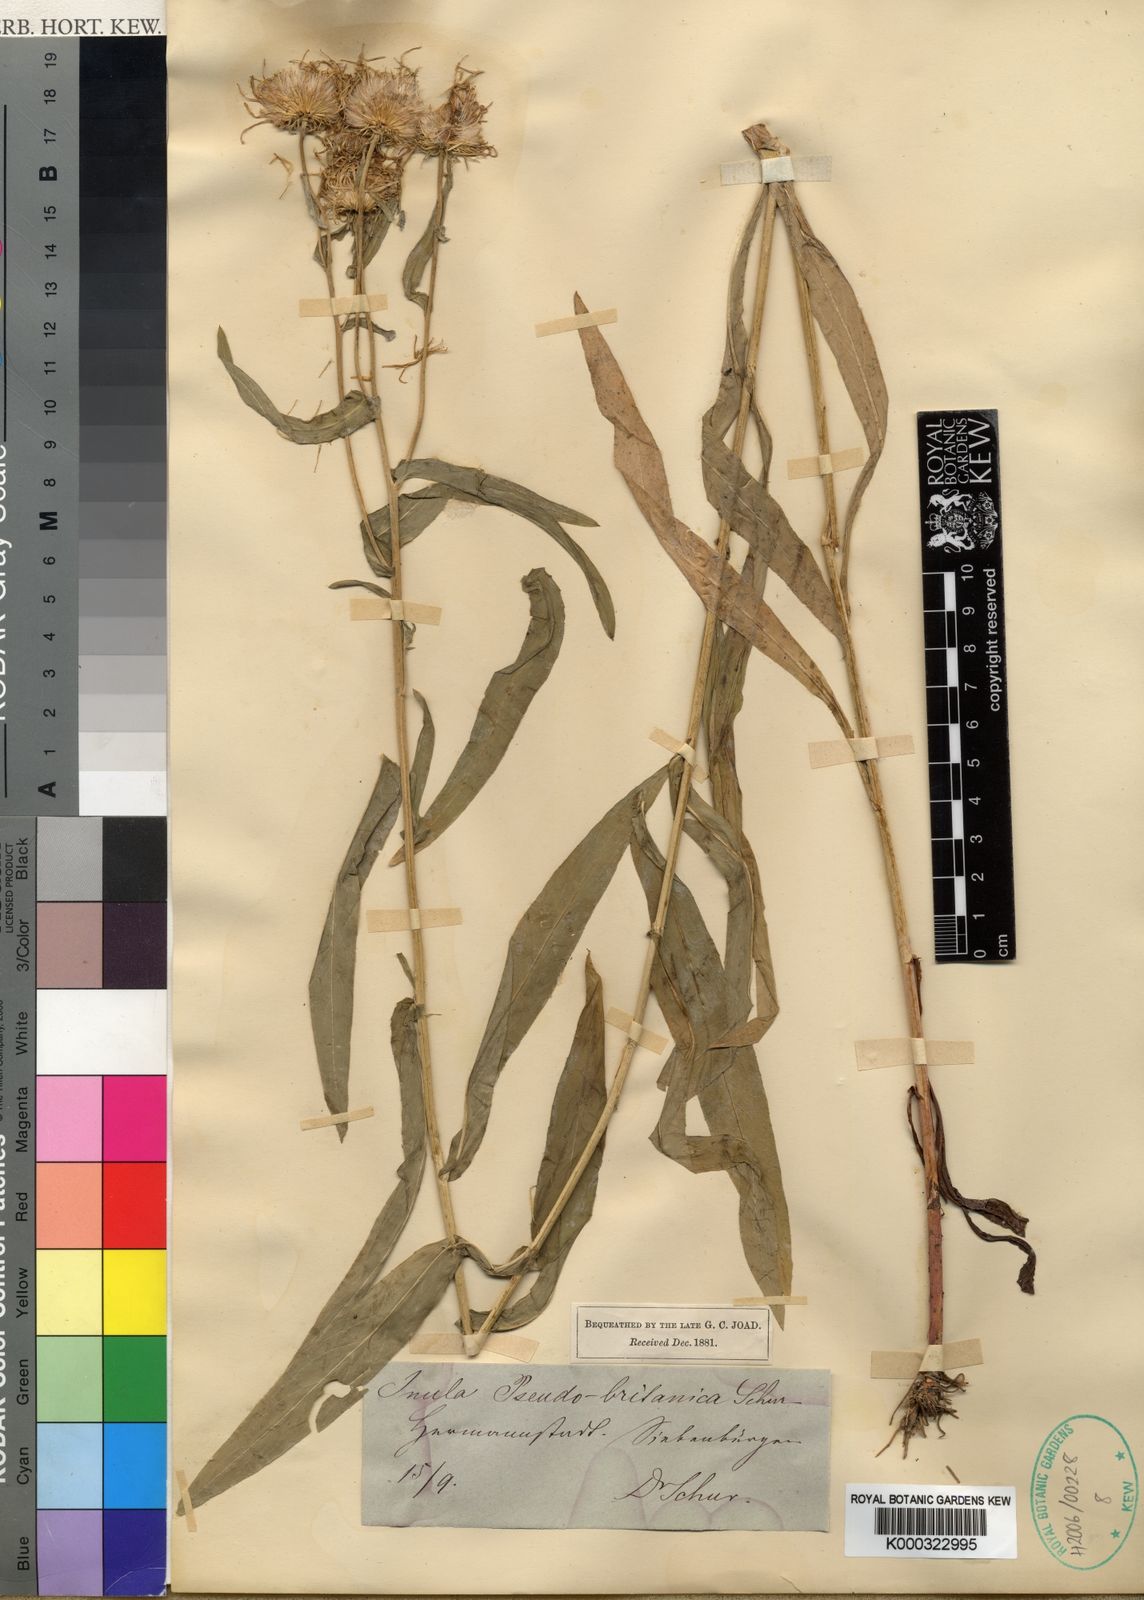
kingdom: Plantae
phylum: Tracheophyta
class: Magnoliopsida
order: Asterales
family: Asteraceae
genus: Pentanema
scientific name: Pentanema auriculatum
